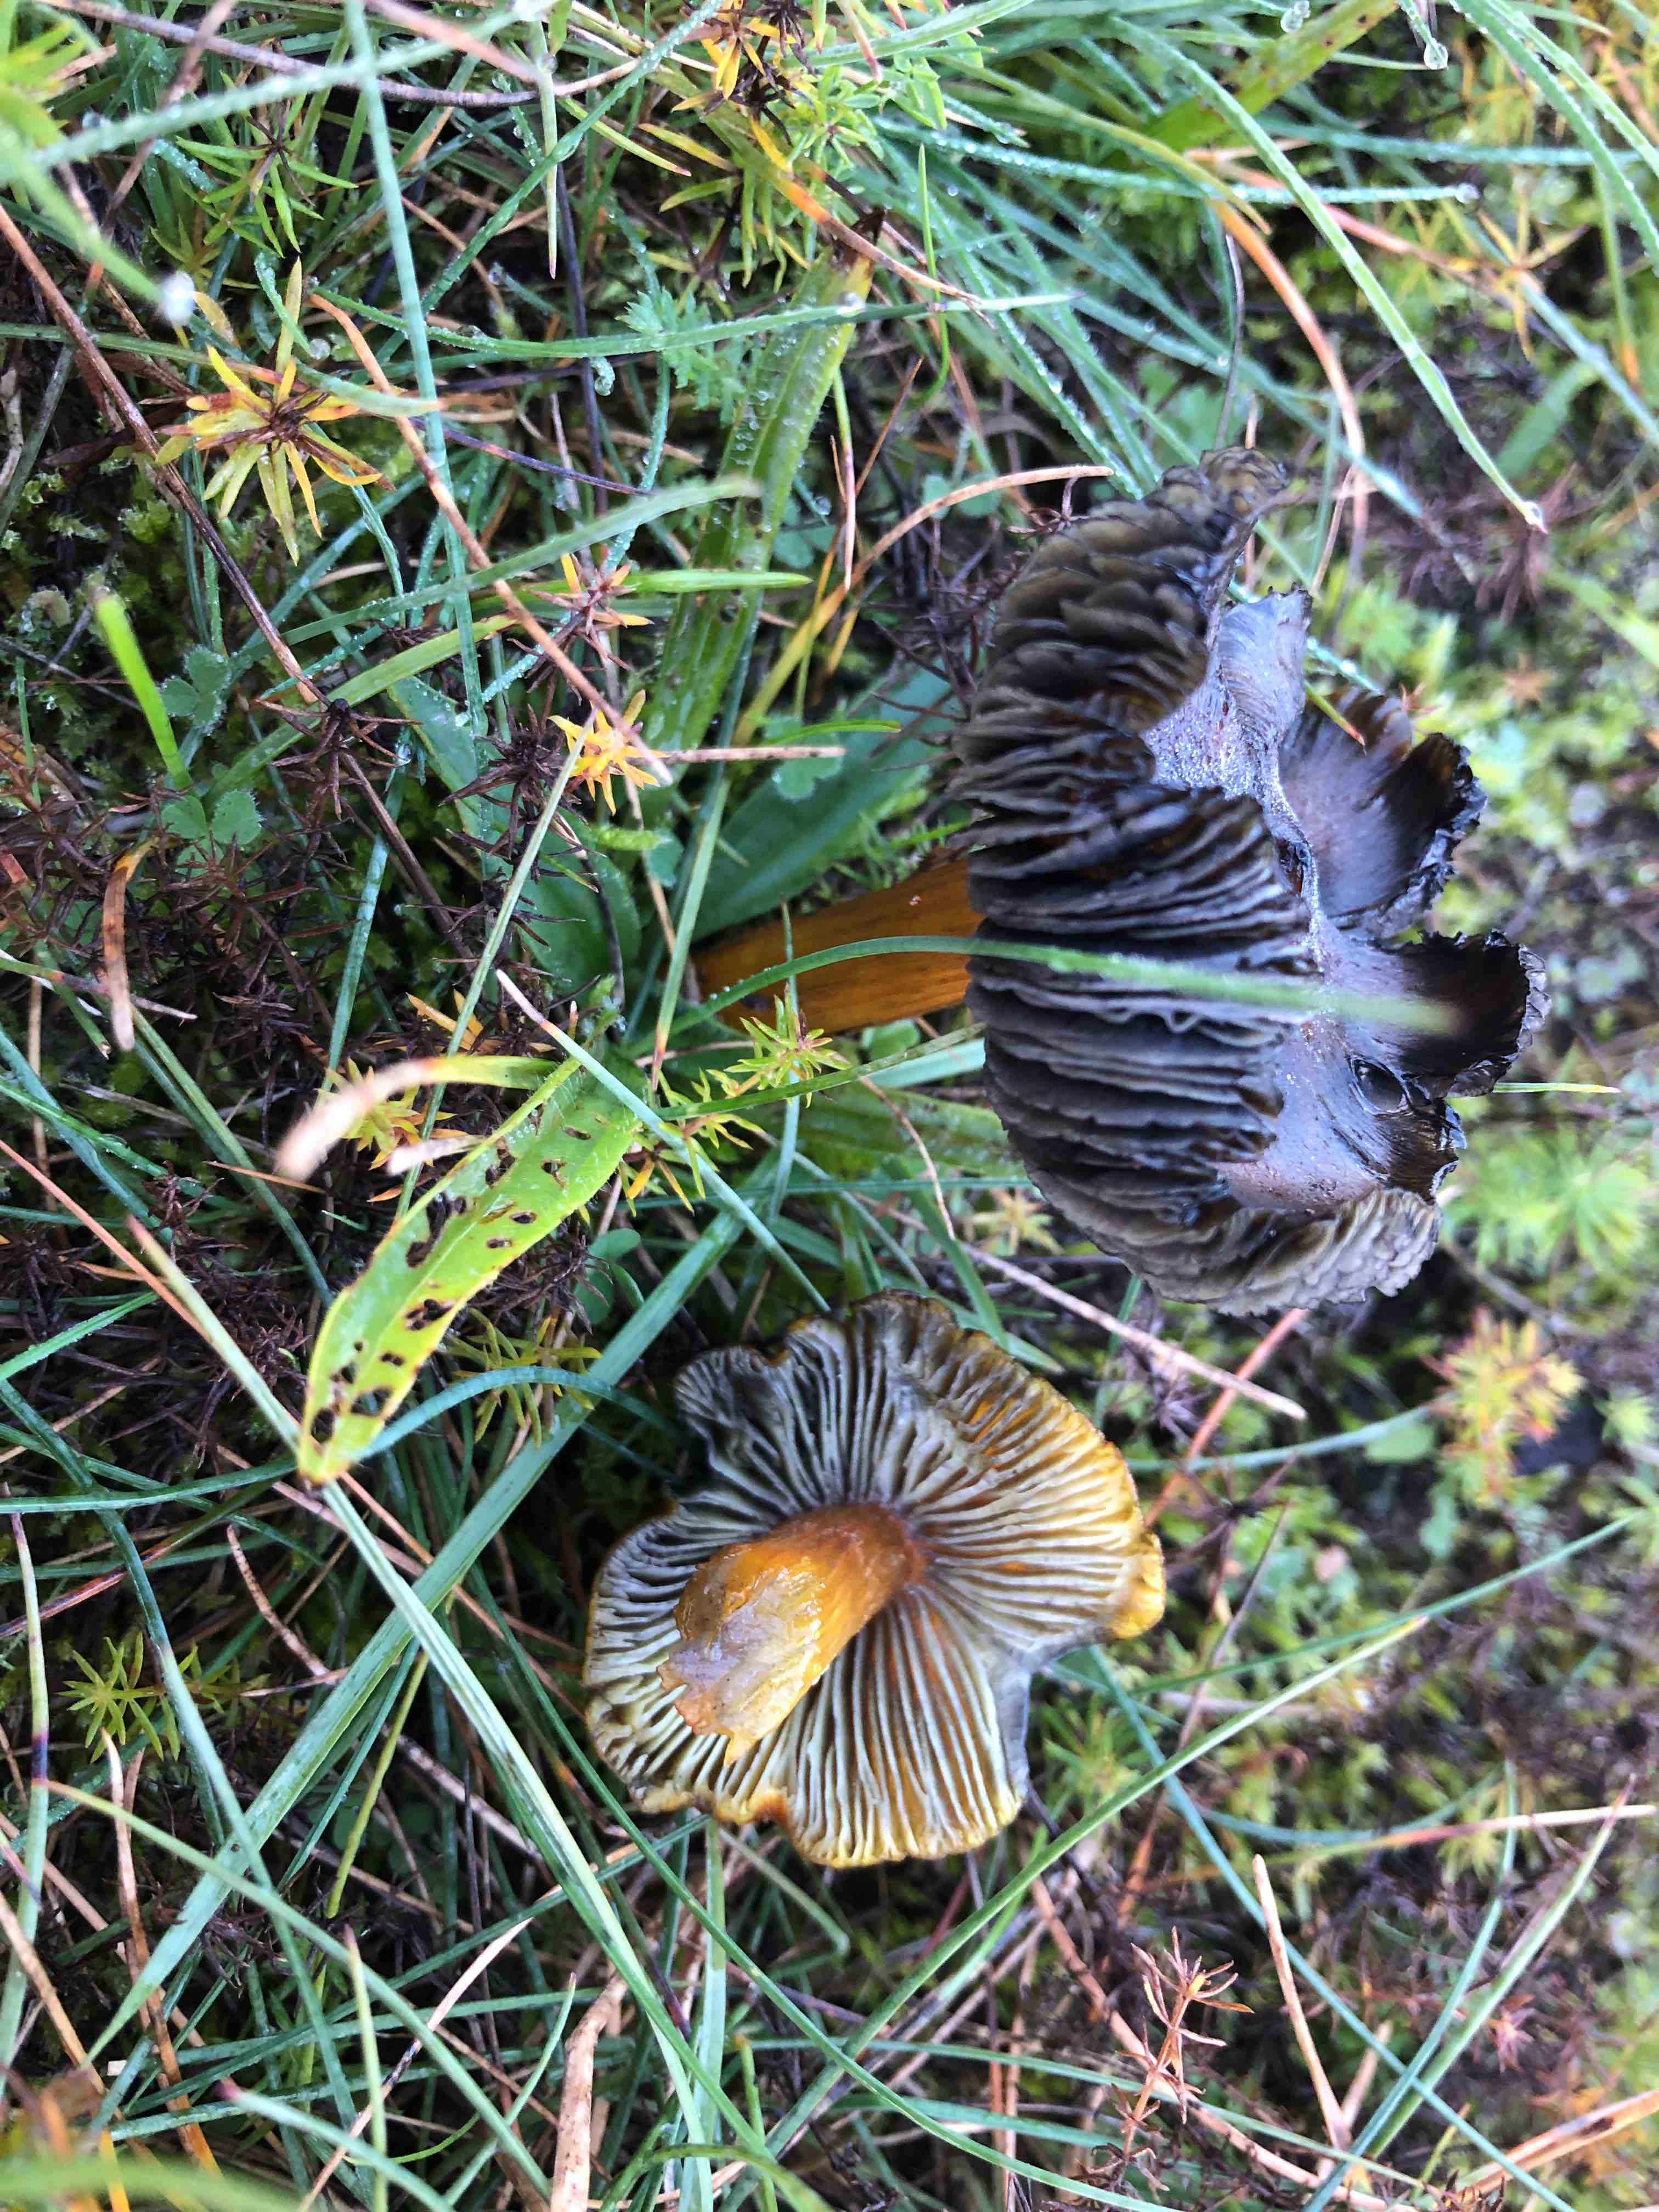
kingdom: Fungi
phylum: Basidiomycota
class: Agaricomycetes
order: Agaricales
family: Hygrophoraceae
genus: Hygrocybe
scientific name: Hygrocybe conica
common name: kegle-vokshat
